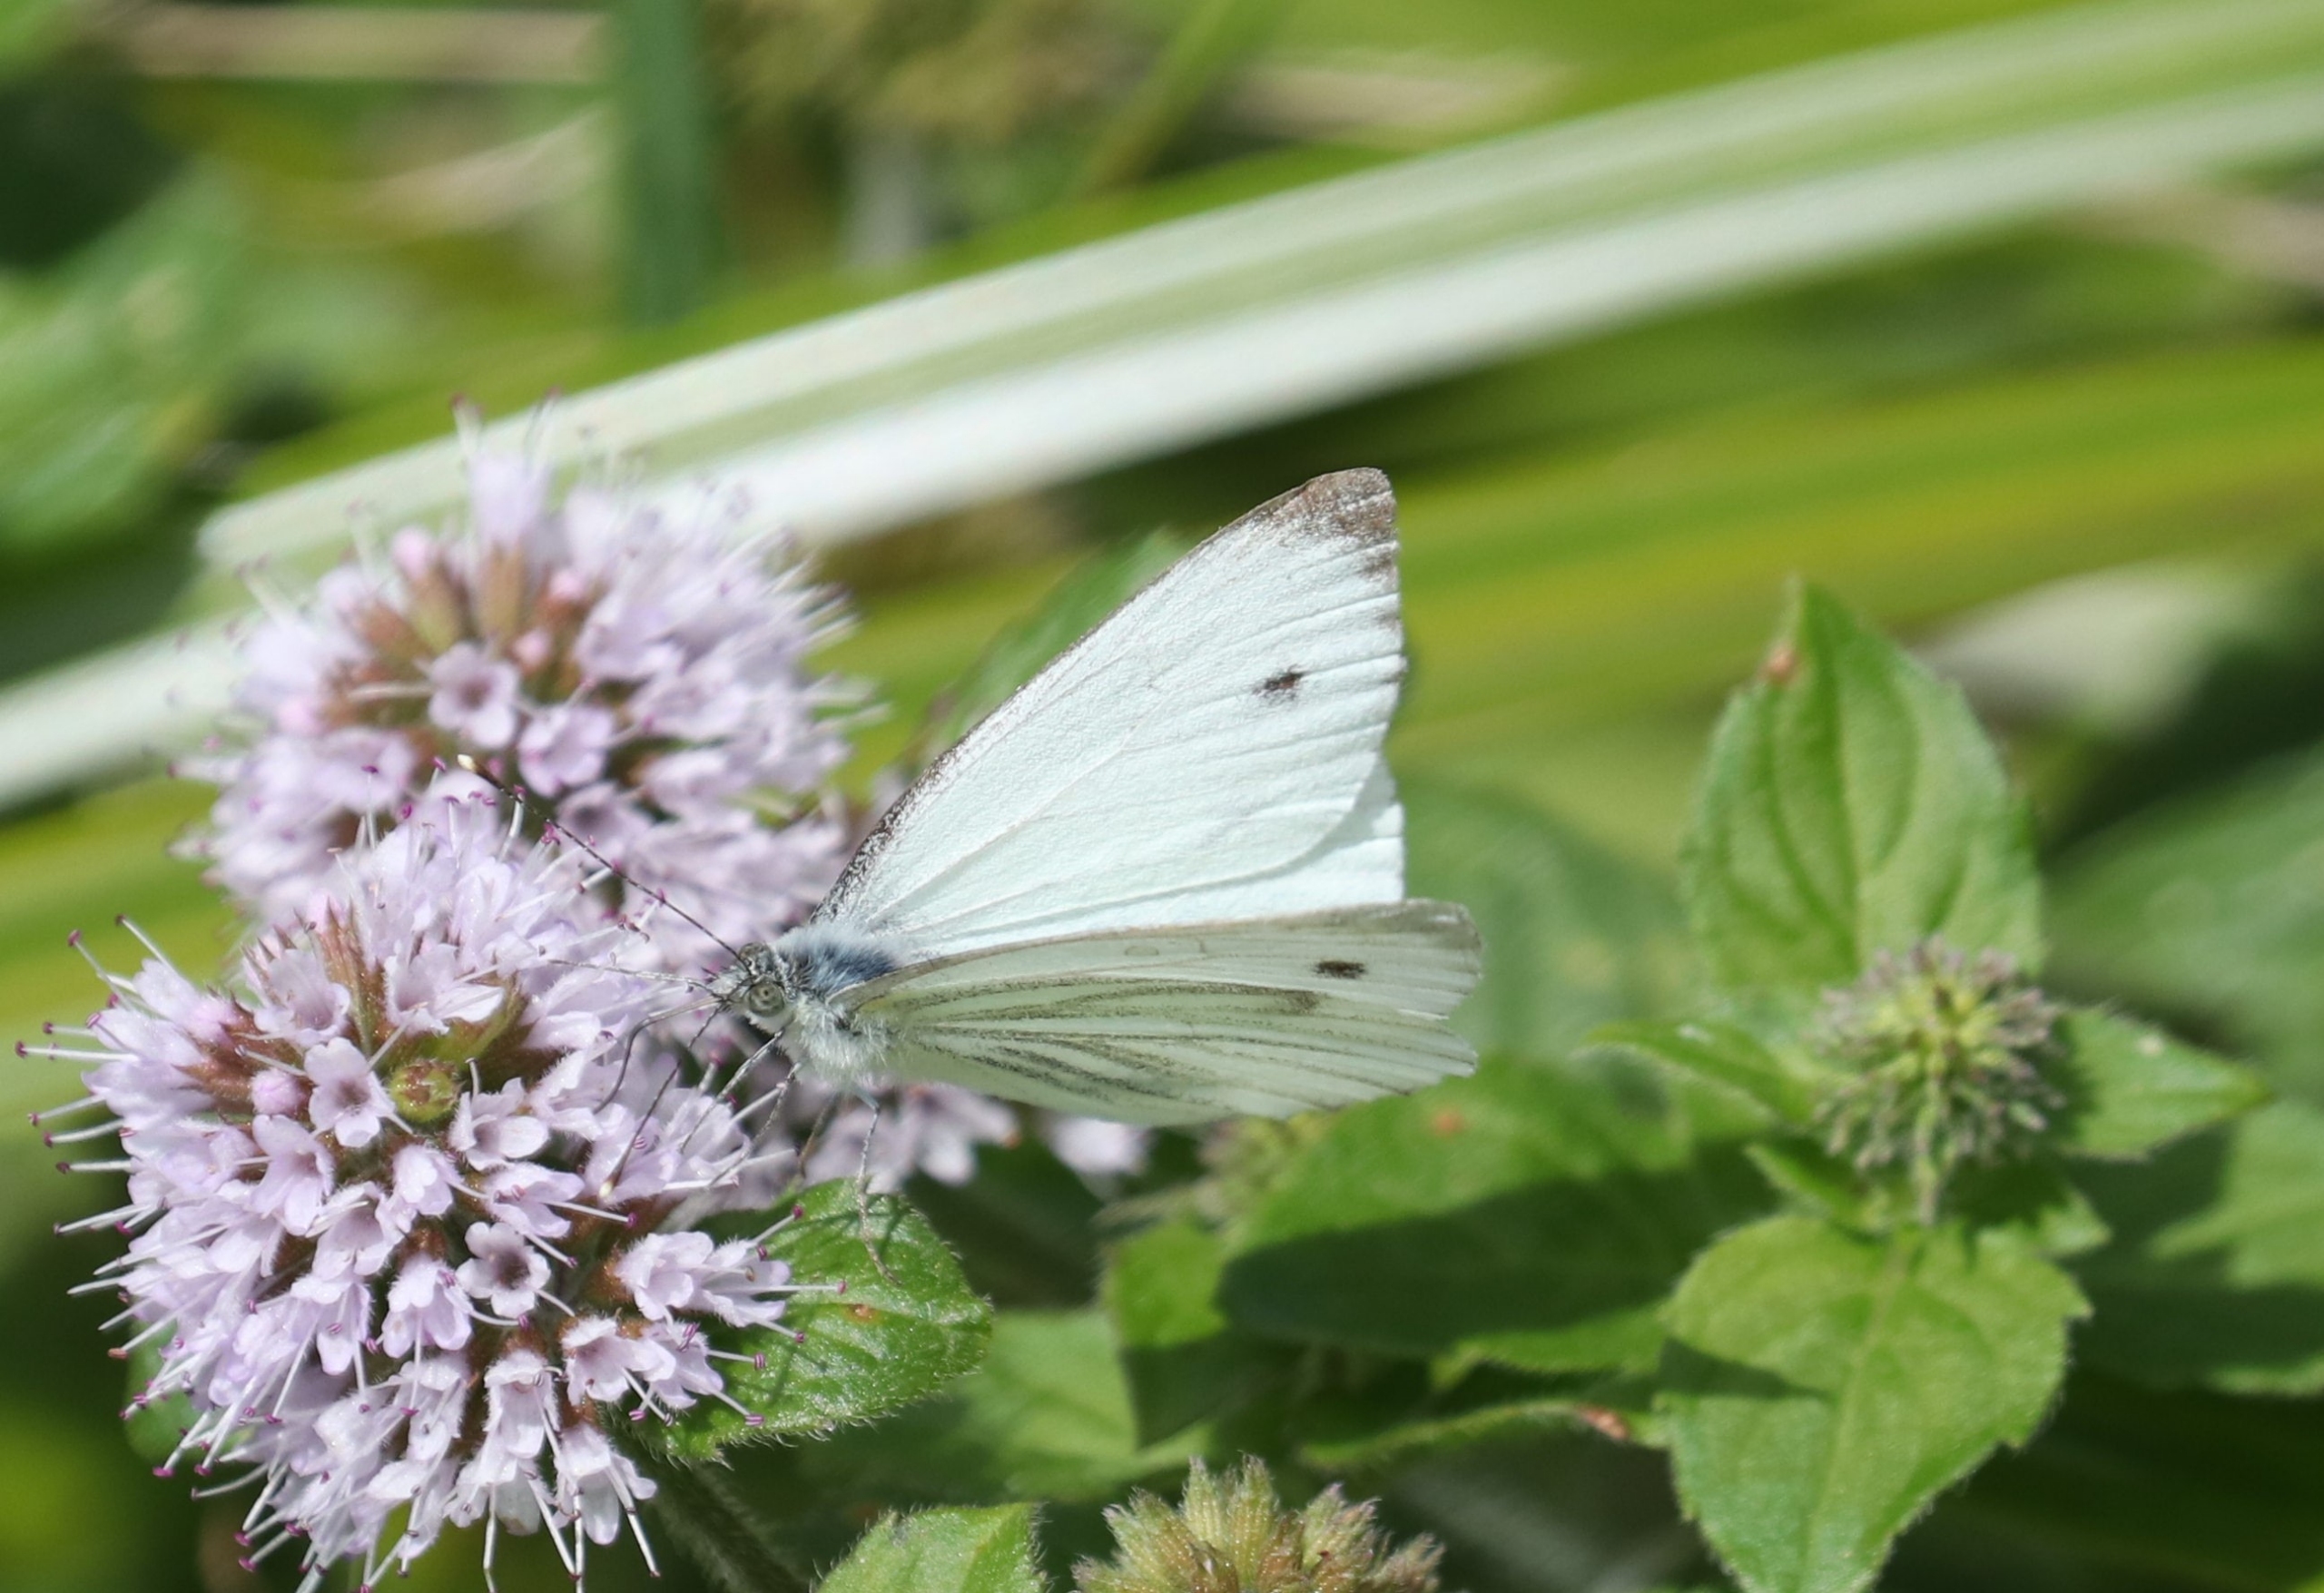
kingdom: Animalia
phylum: Arthropoda
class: Insecta
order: Lepidoptera
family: Pieridae
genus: Pieris
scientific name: Pieris napi
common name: Grønåret kålsommerfugl
